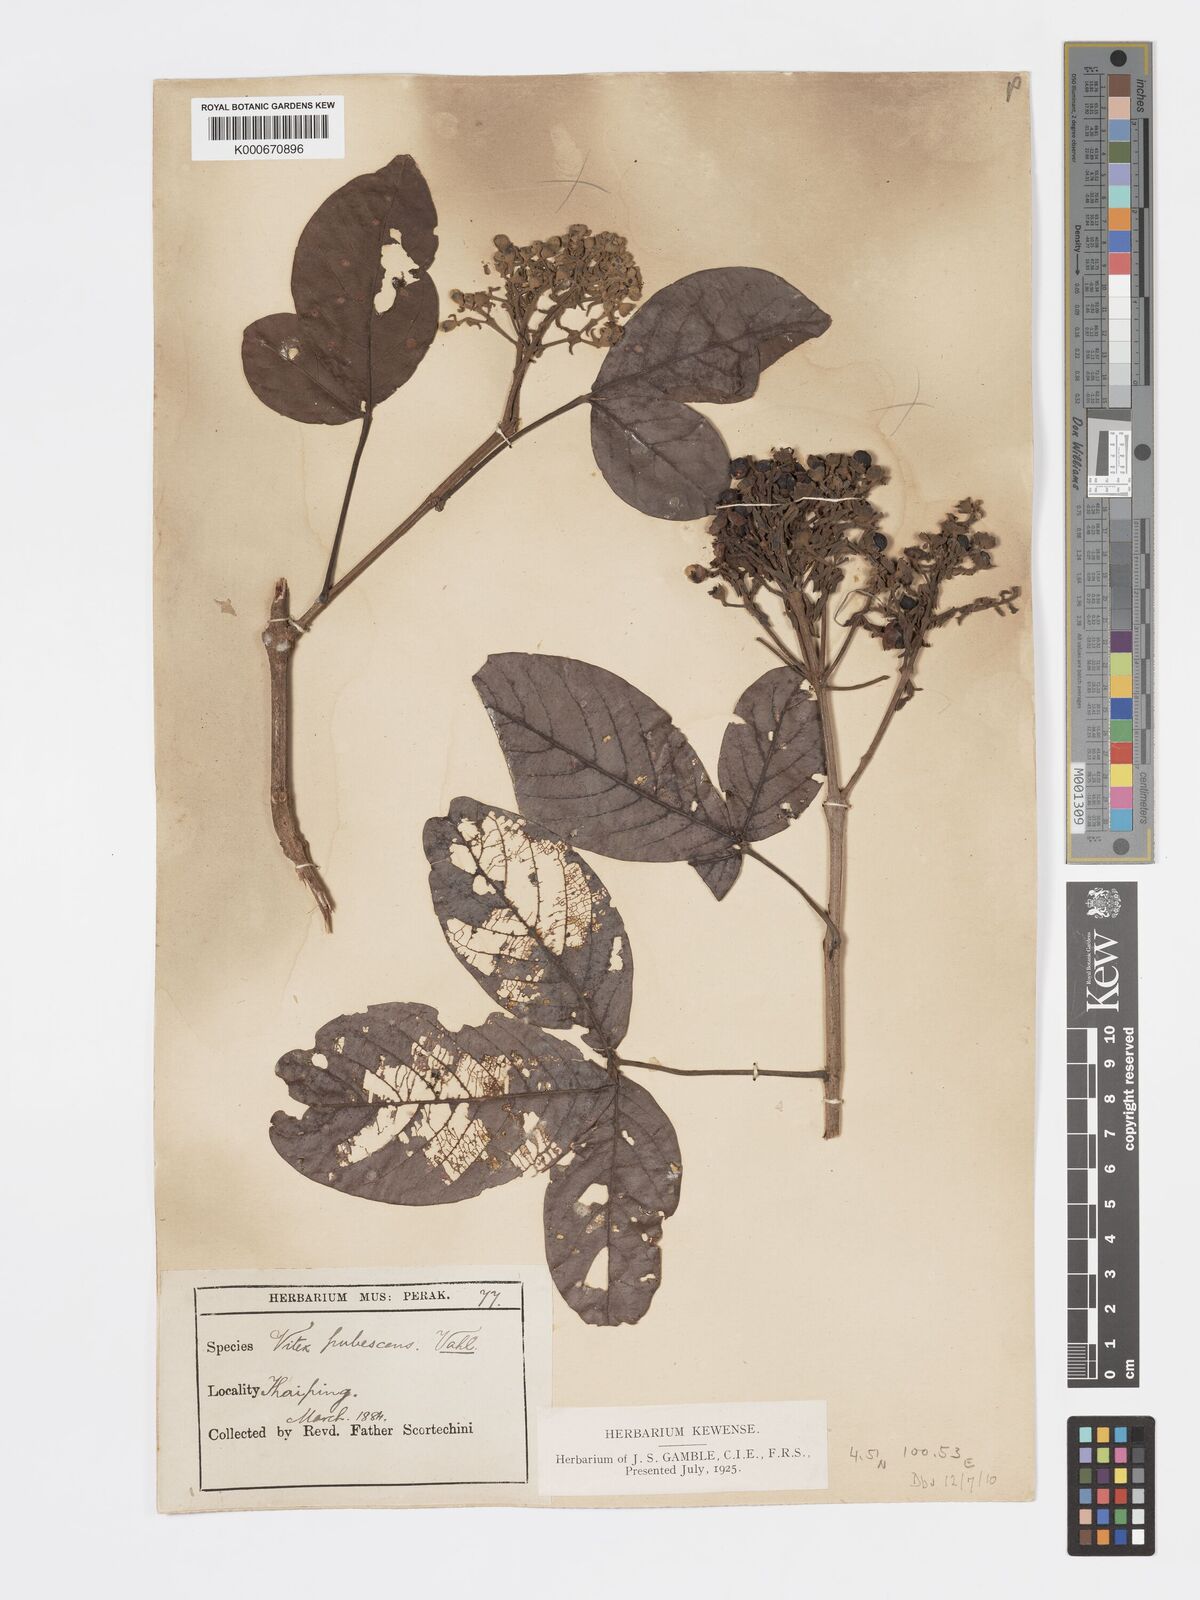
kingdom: Plantae
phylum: Tracheophyta
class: Magnoliopsida
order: Lamiales
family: Lamiaceae
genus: Vitex
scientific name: Vitex pinnata
